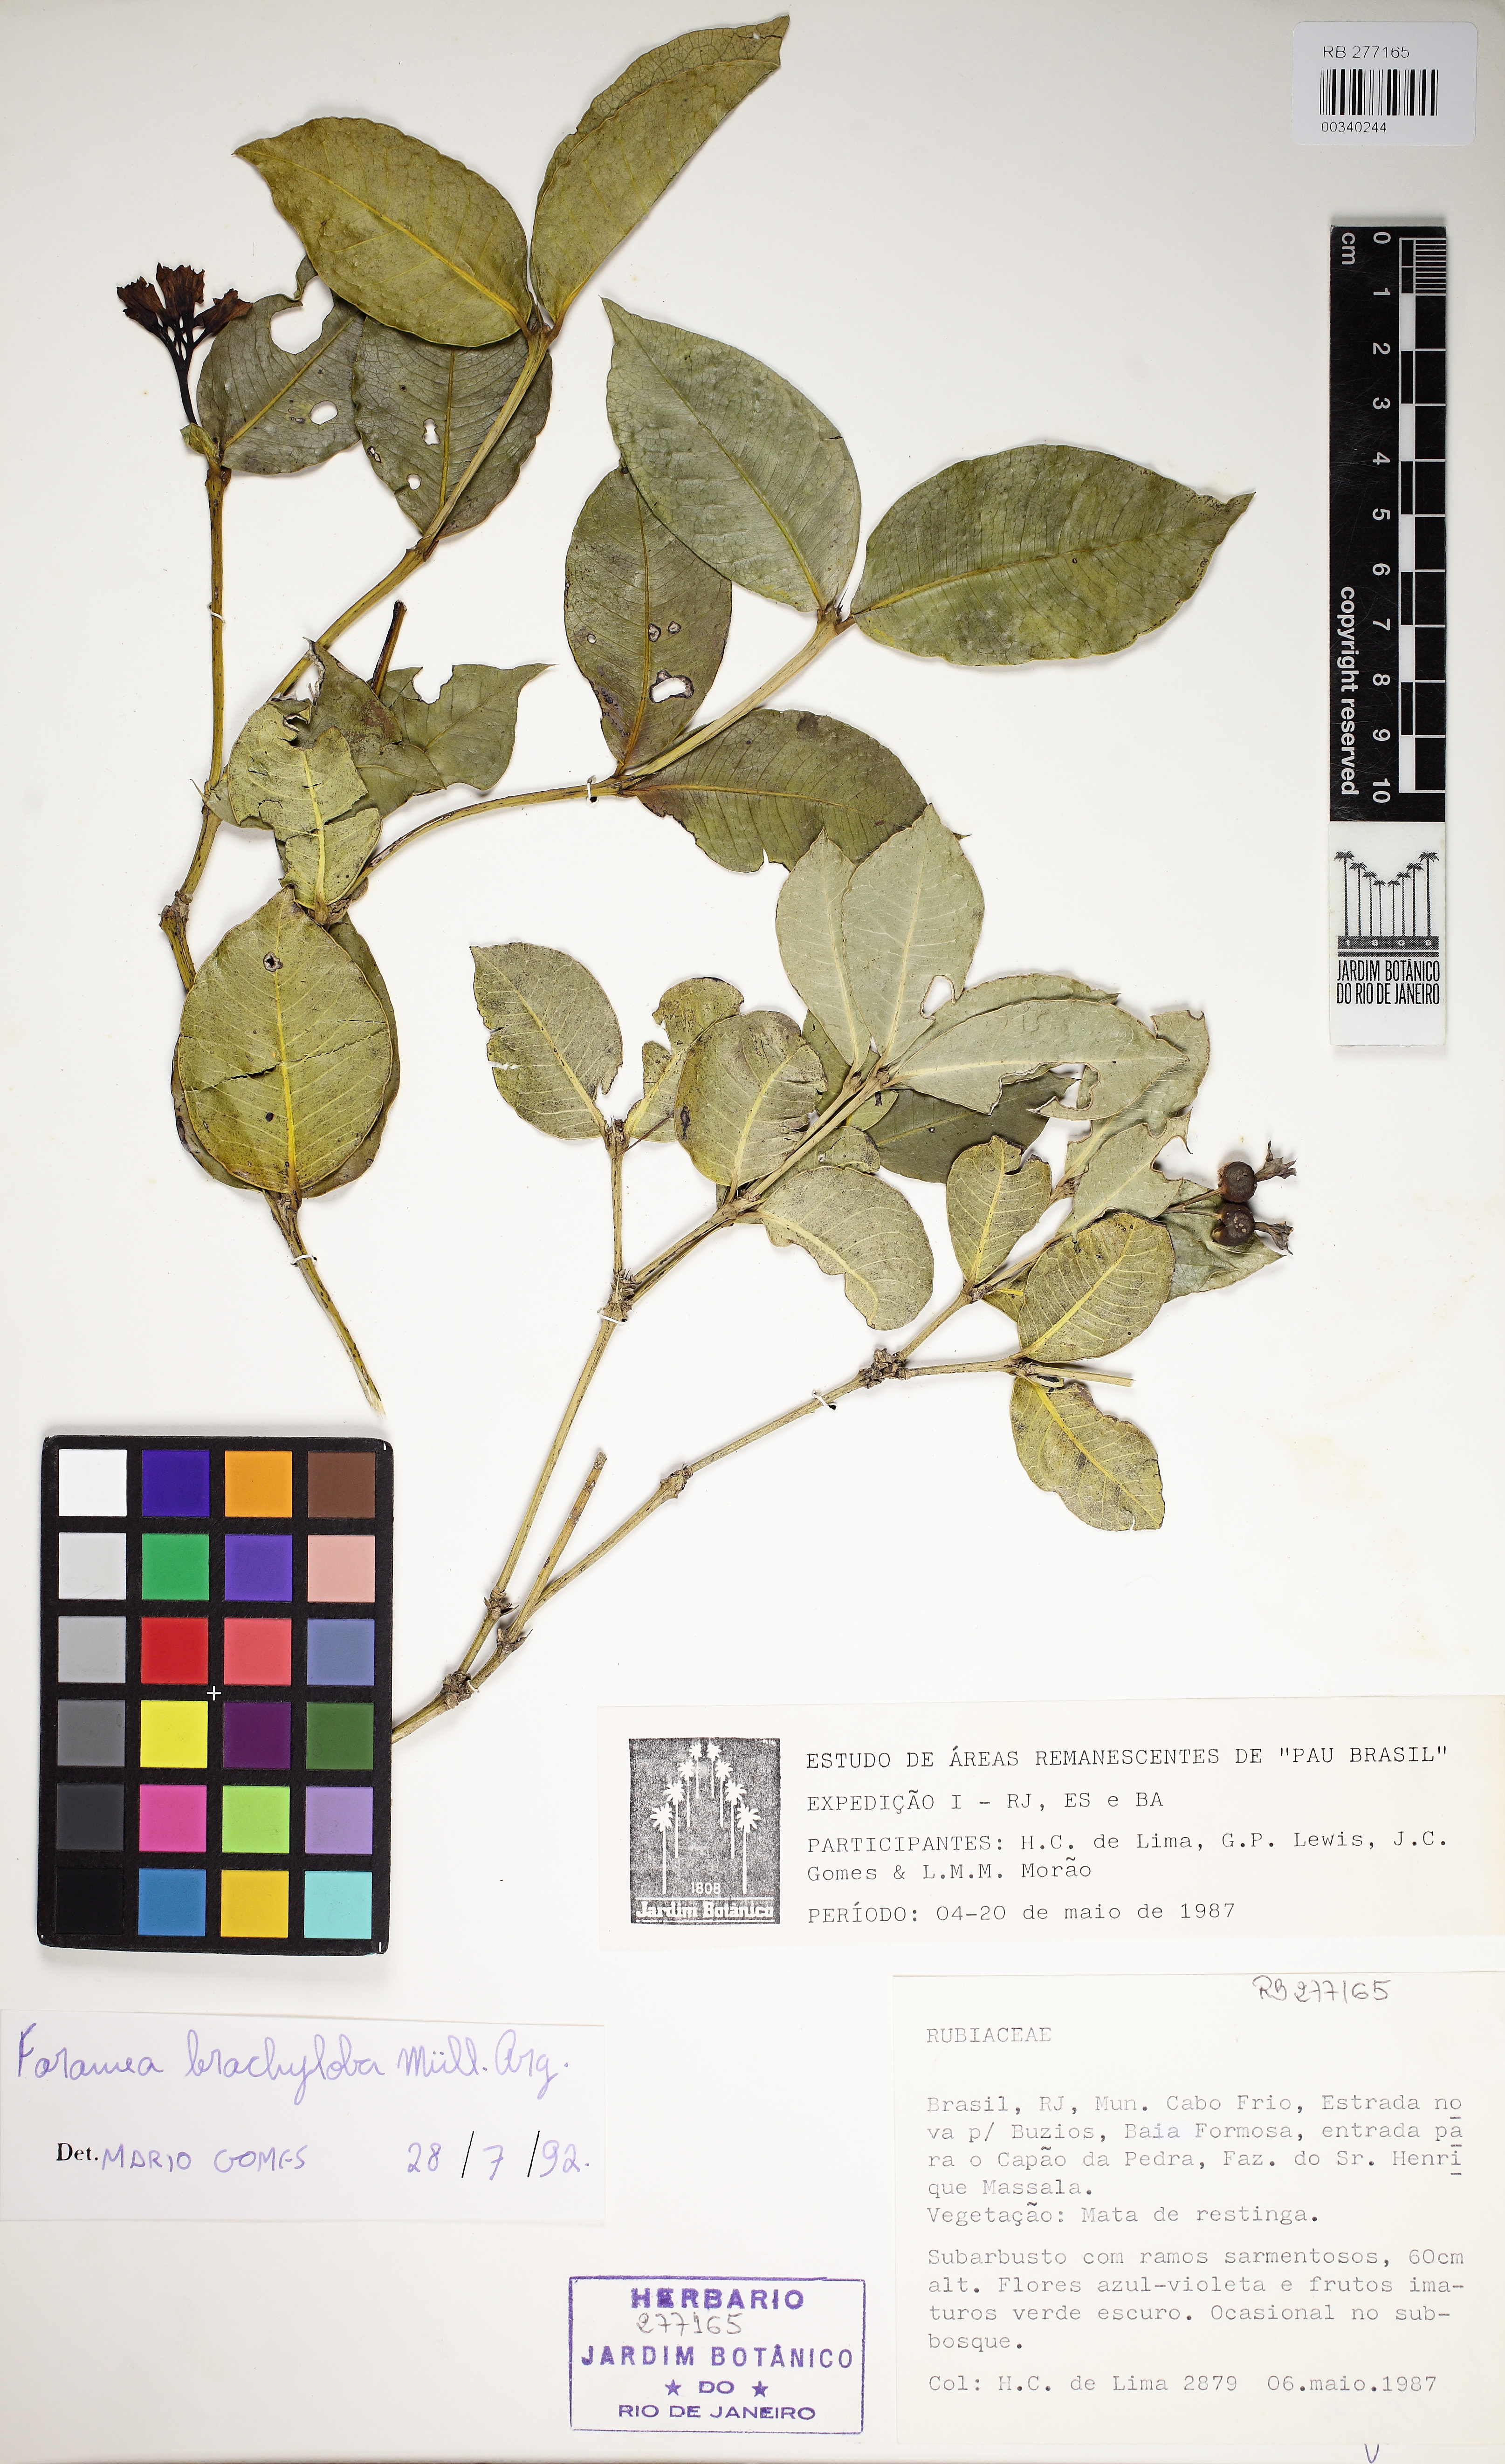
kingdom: Plantae
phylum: Tracheophyta
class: Magnoliopsida
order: Gentianales
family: Rubiaceae
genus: Faramea
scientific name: Faramea brachyloba
